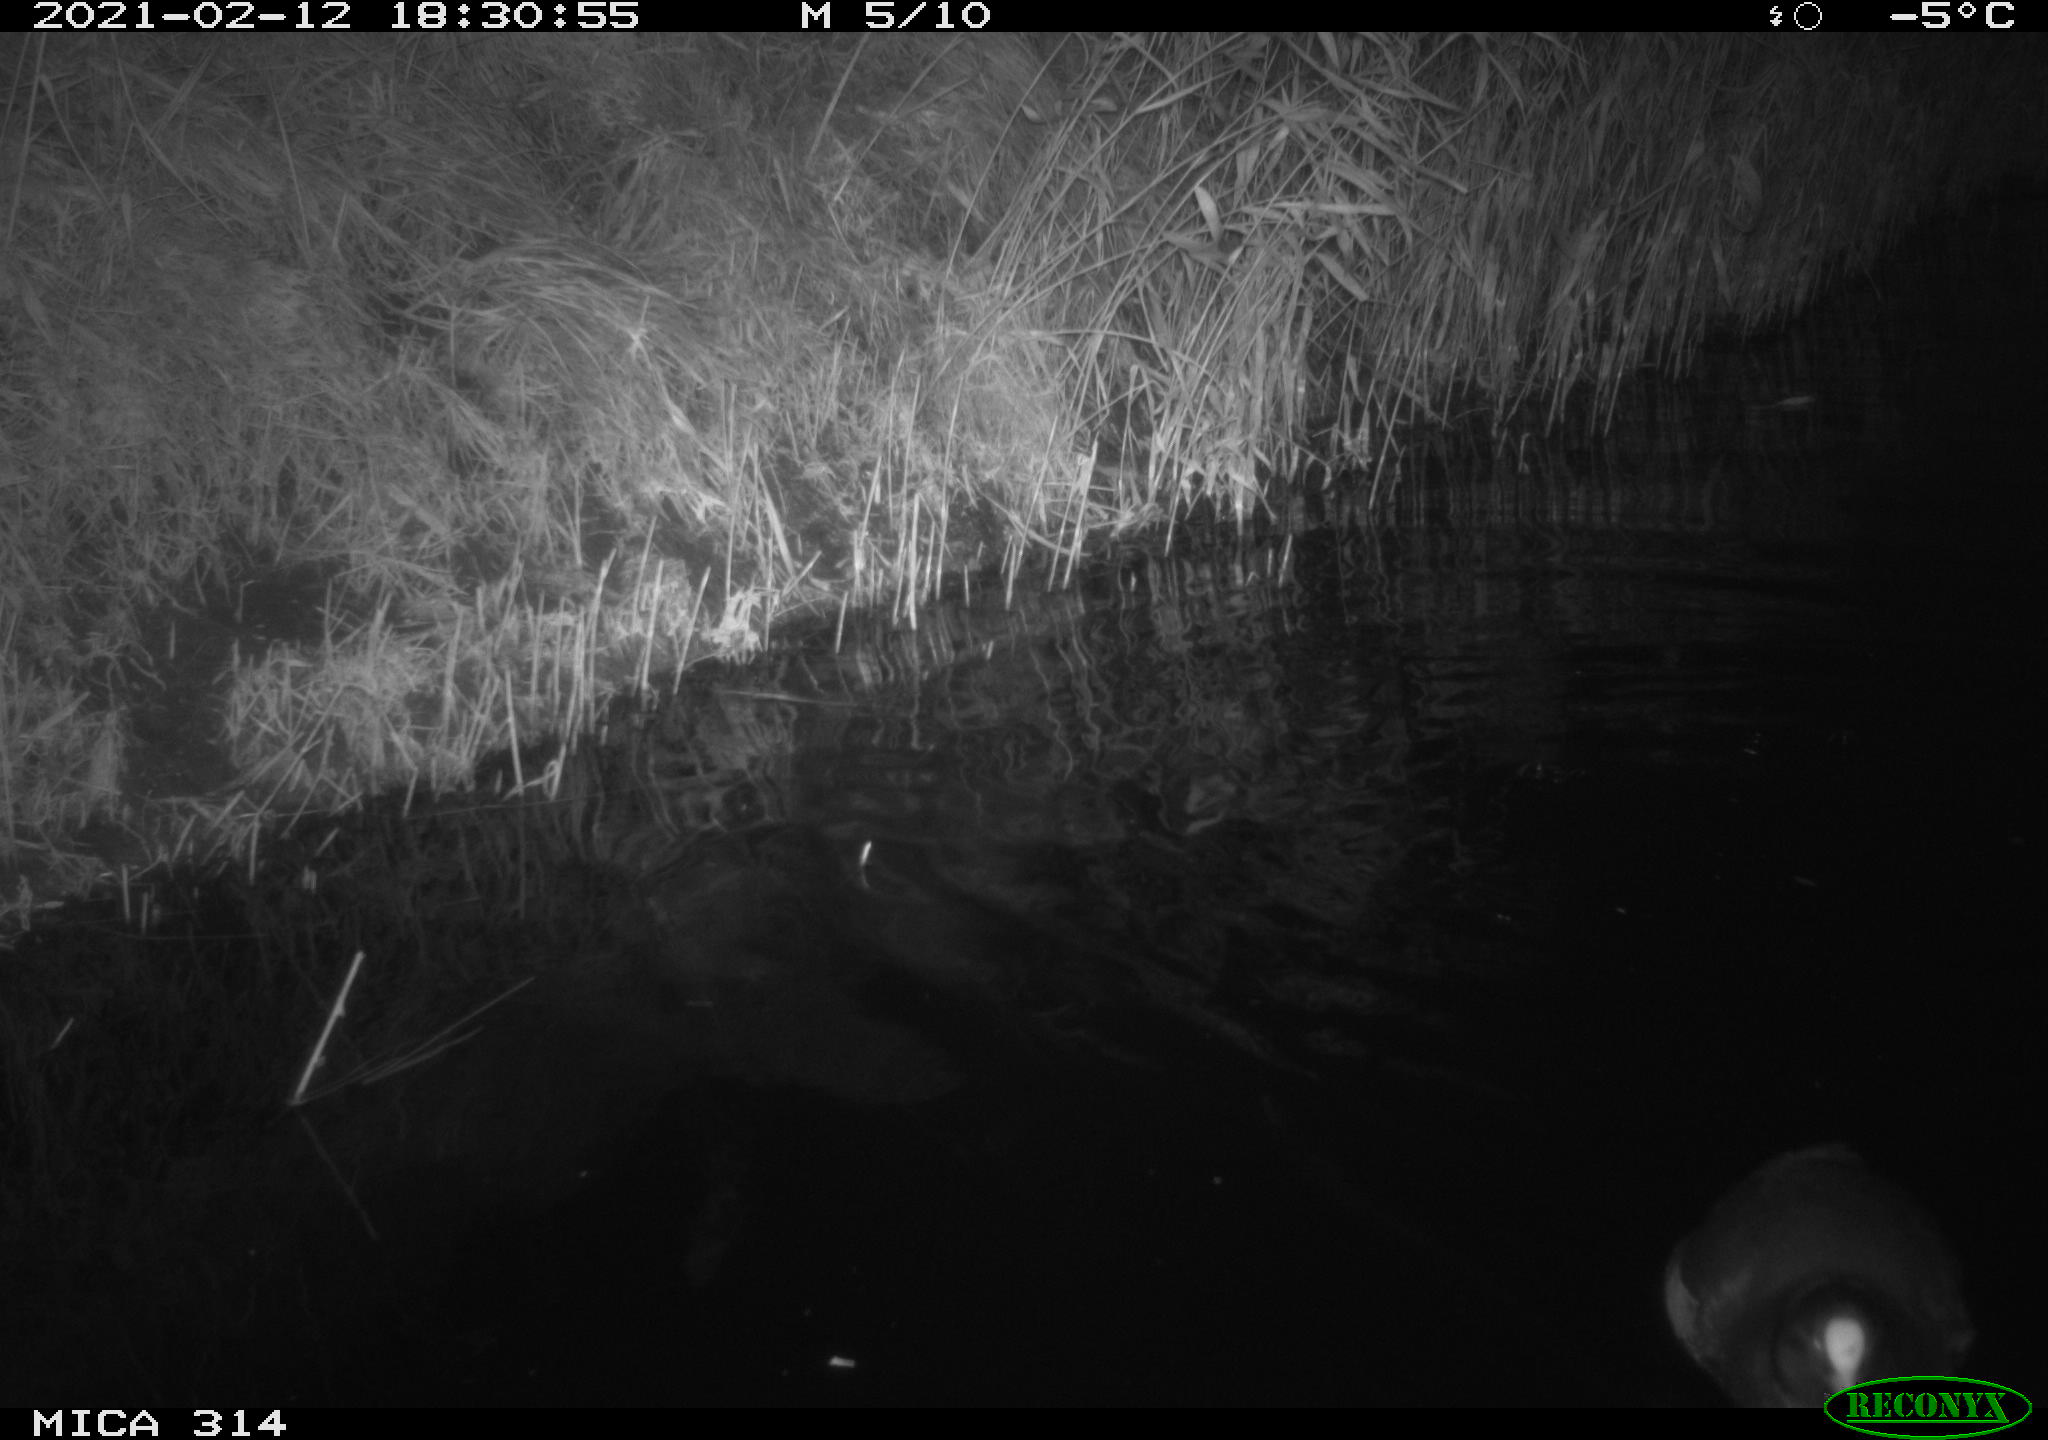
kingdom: Animalia
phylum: Chordata
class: Aves
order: Gruiformes
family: Rallidae
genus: Fulica
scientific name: Fulica atra
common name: Eurasian coot
